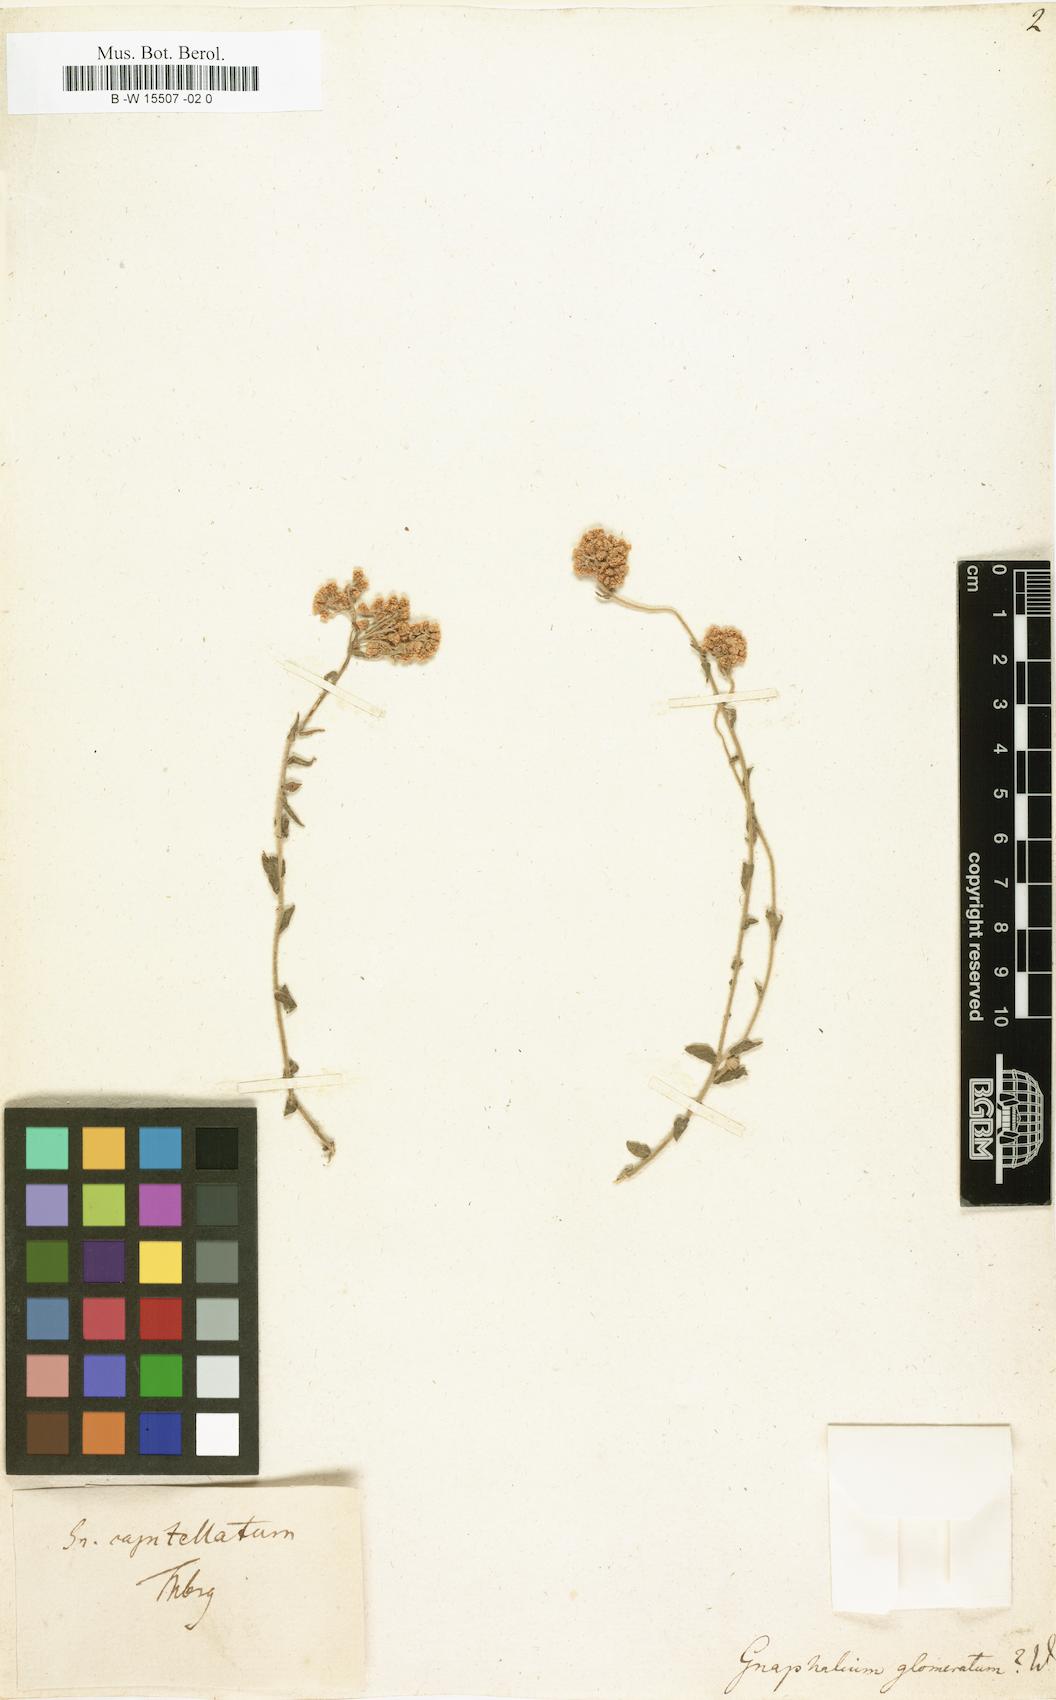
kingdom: Plantae
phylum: Tracheophyta
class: Magnoliopsida
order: Asterales
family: Asteraceae
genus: Gnaphalium
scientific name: Gnaphalium glomeratum
